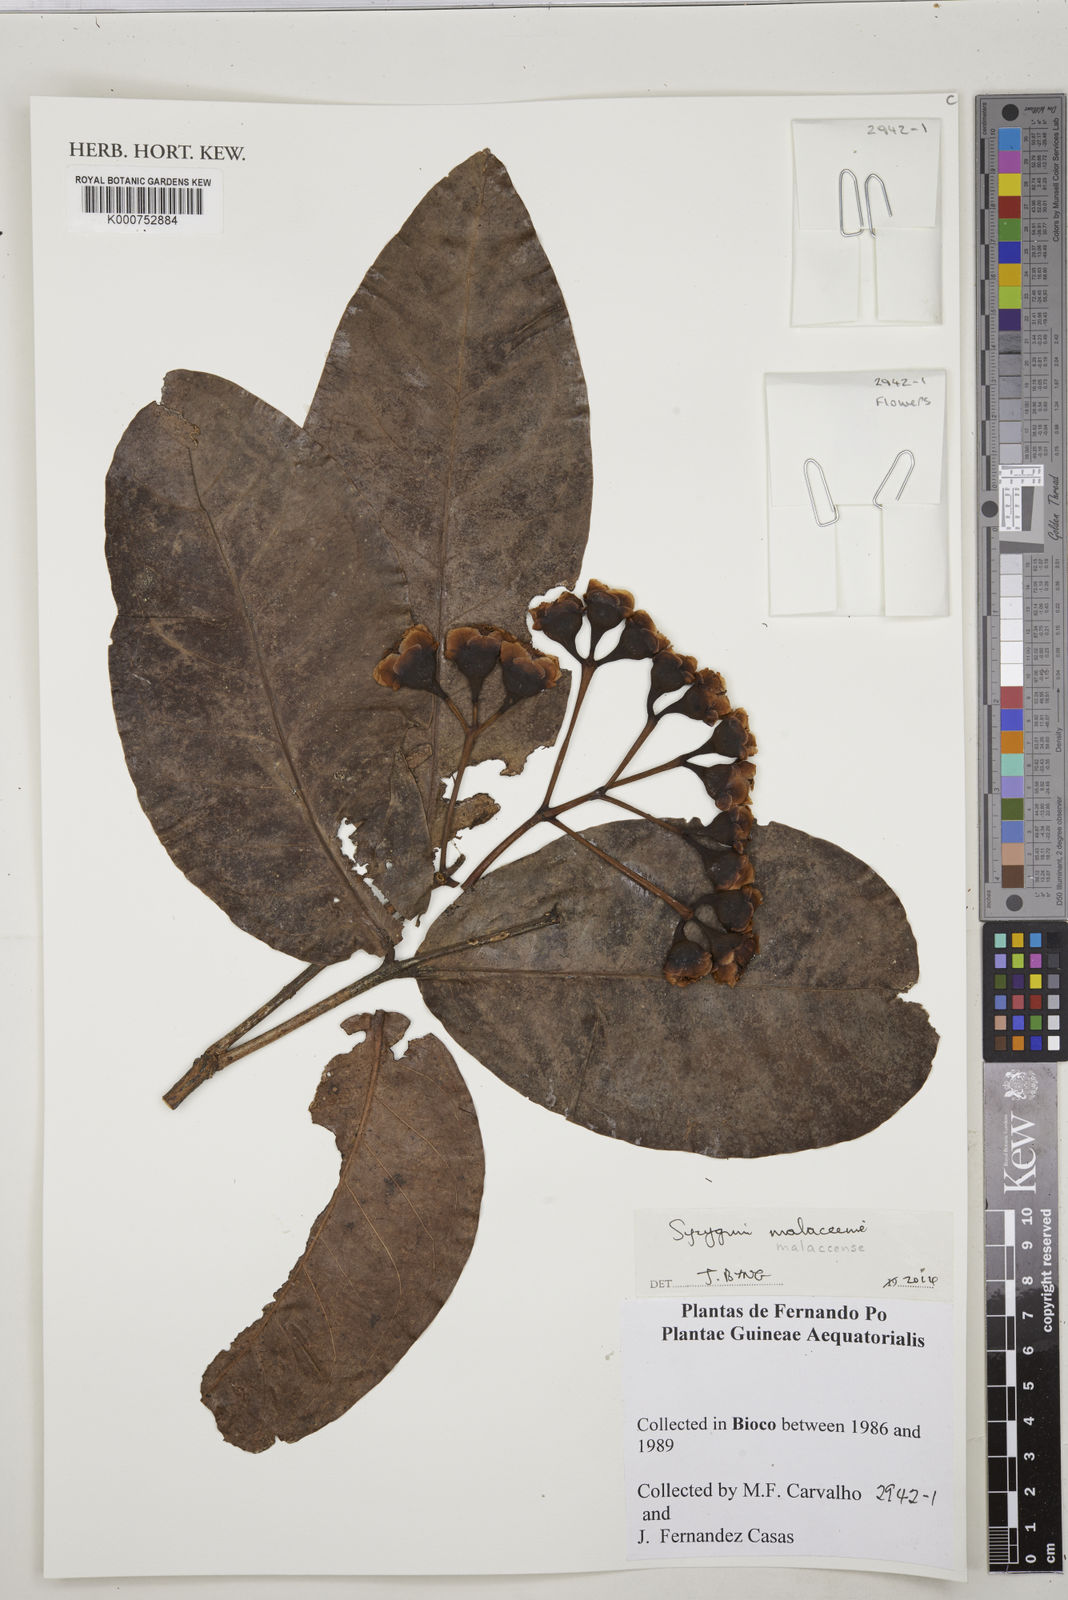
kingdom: Plantae
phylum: Tracheophyta
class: Magnoliopsida
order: Myrtales
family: Myrtaceae
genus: Syzygium
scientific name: Syzygium malaccense
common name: Malaysian apple
